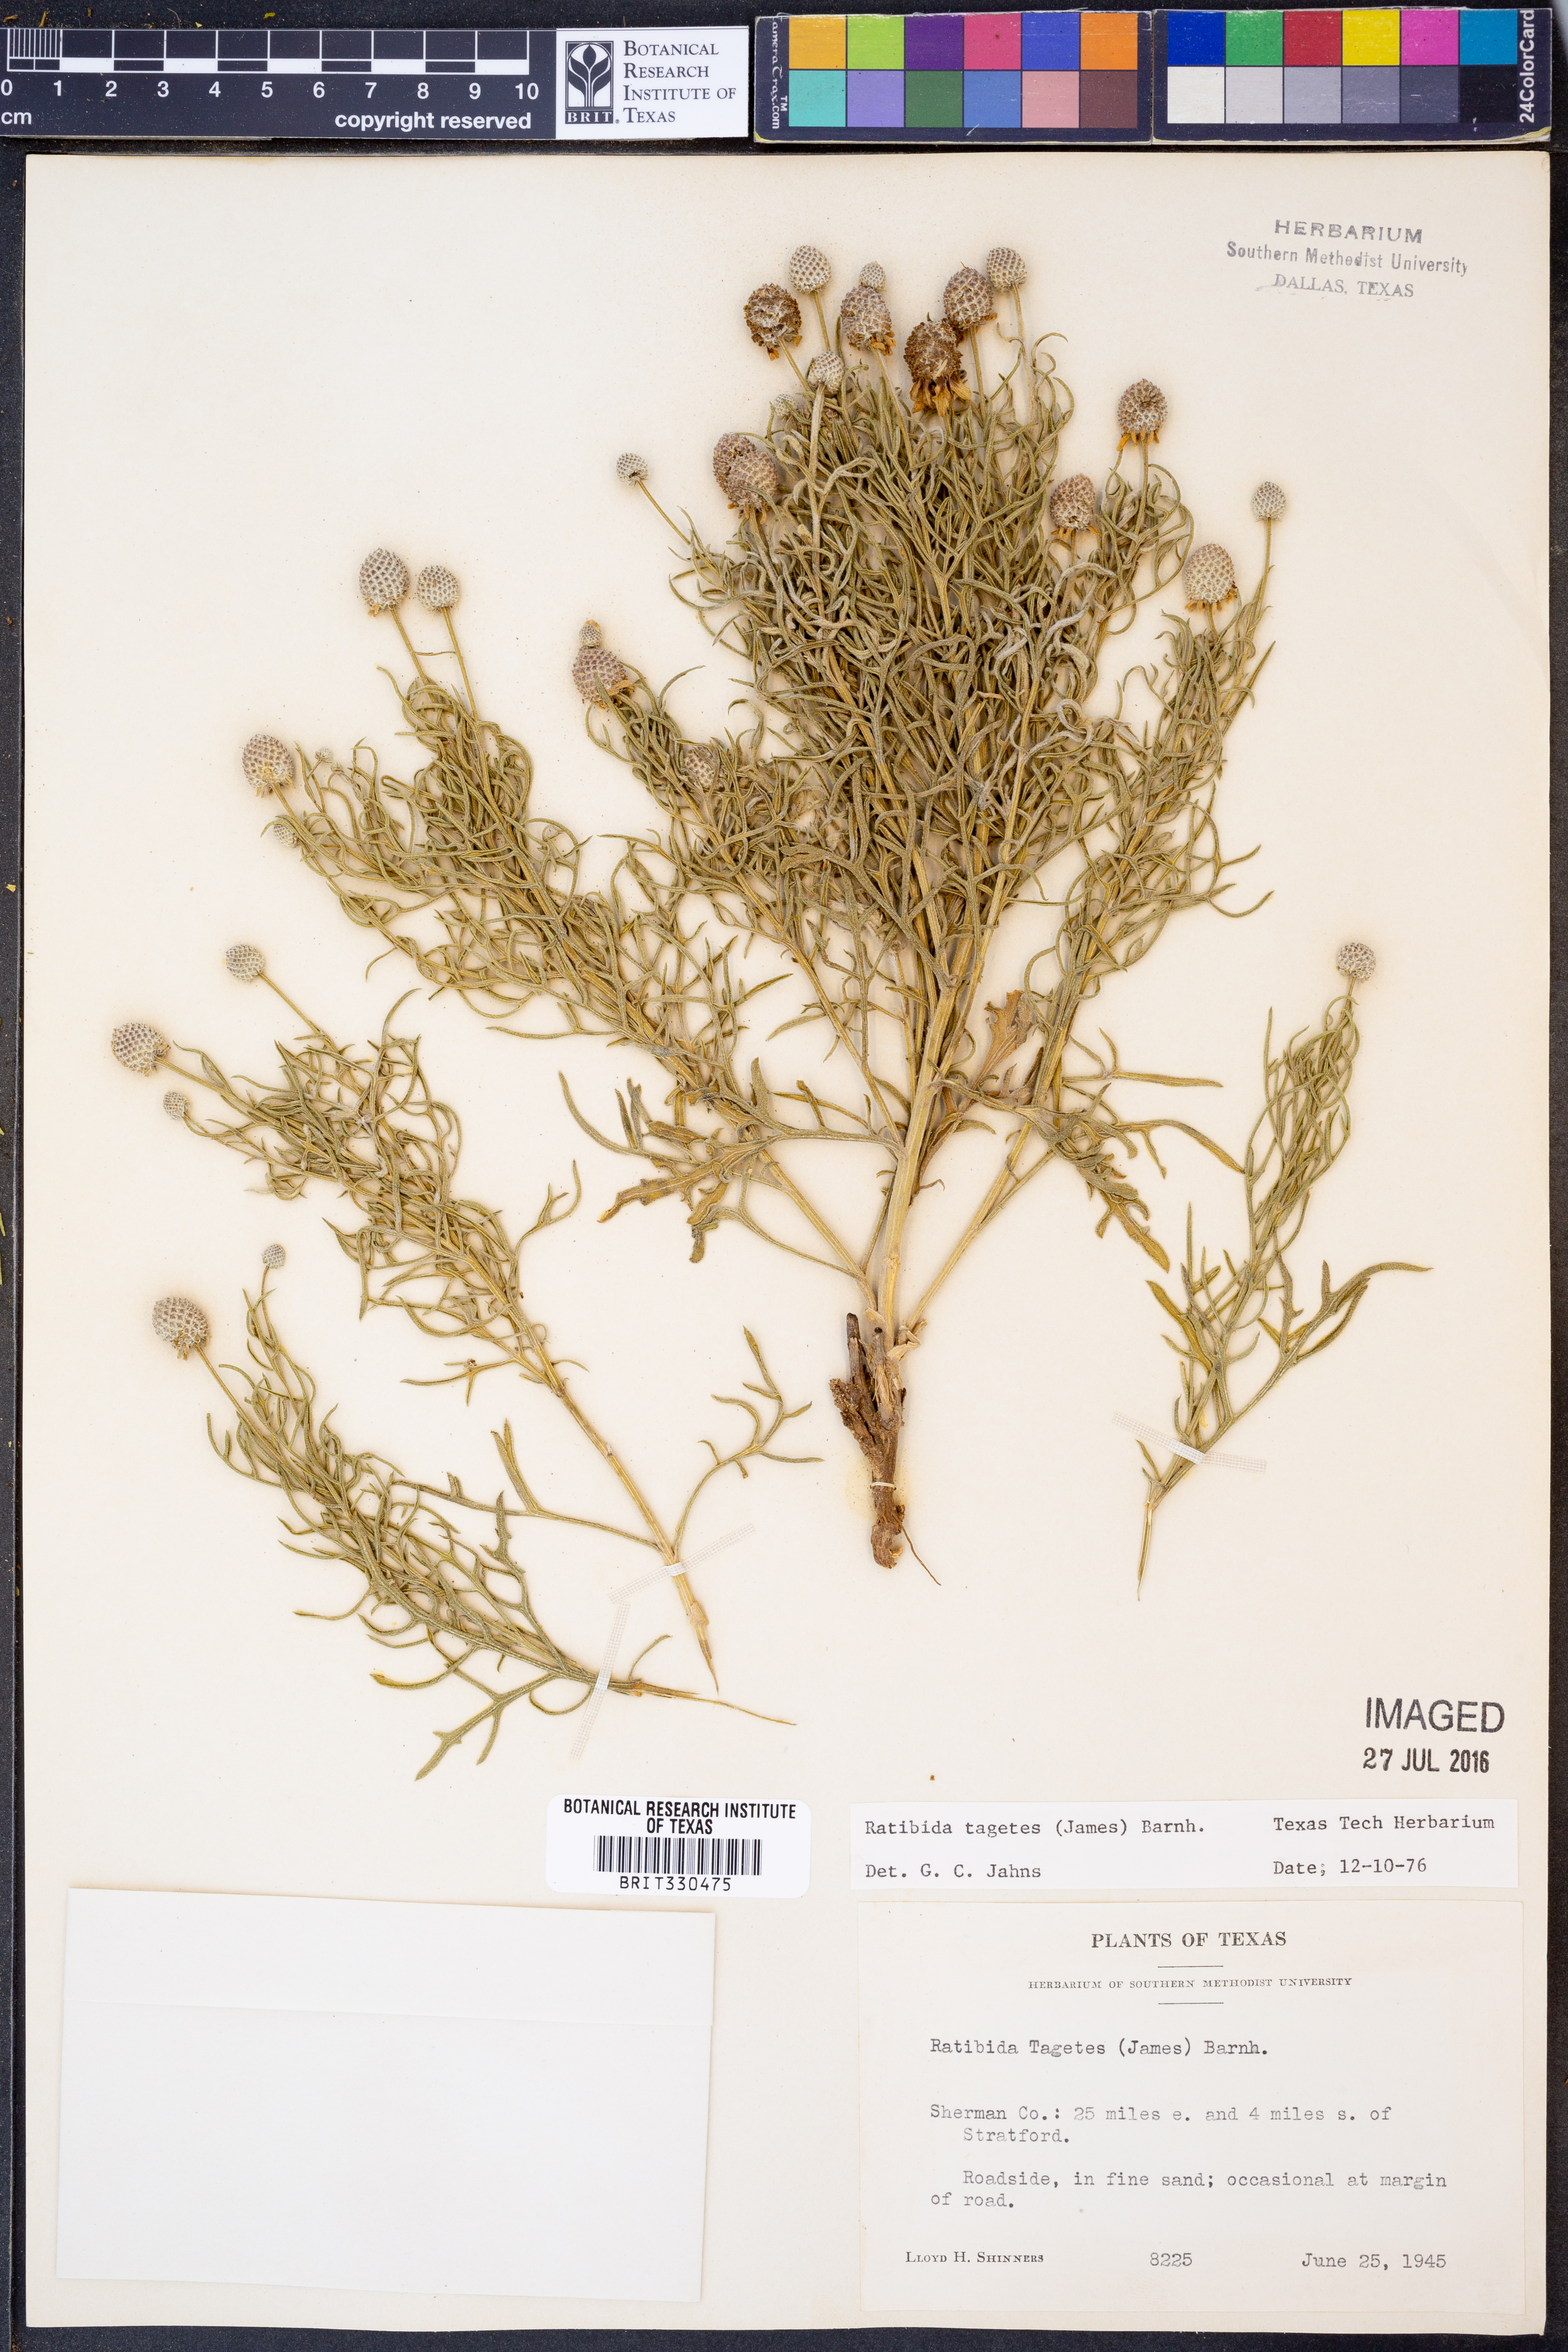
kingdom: Plantae
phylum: Tracheophyta
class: Magnoliopsida
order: Asterales
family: Asteraceae
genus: Ratibida
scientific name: Ratibida tagetes
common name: Green mexican-hat
